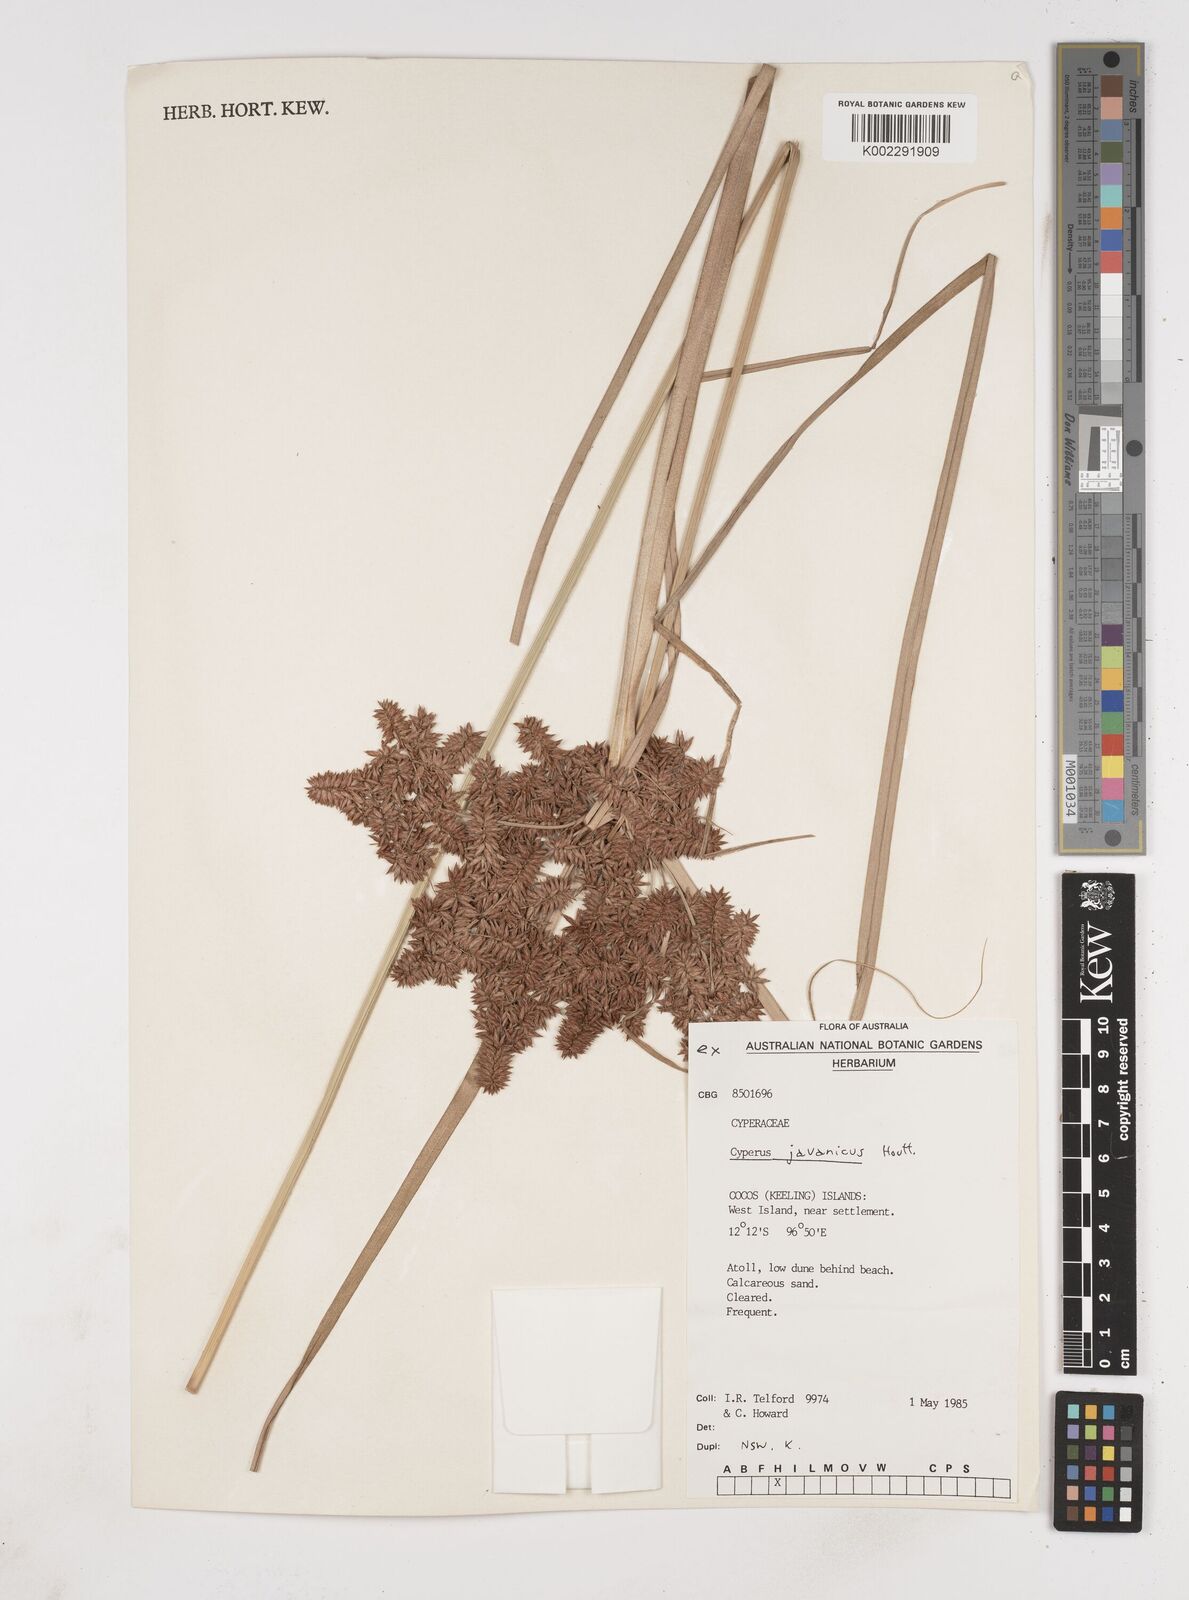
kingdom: Plantae
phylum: Tracheophyta
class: Liliopsida
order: Poales
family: Cyperaceae
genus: Cyperus
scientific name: Cyperus javanicus
